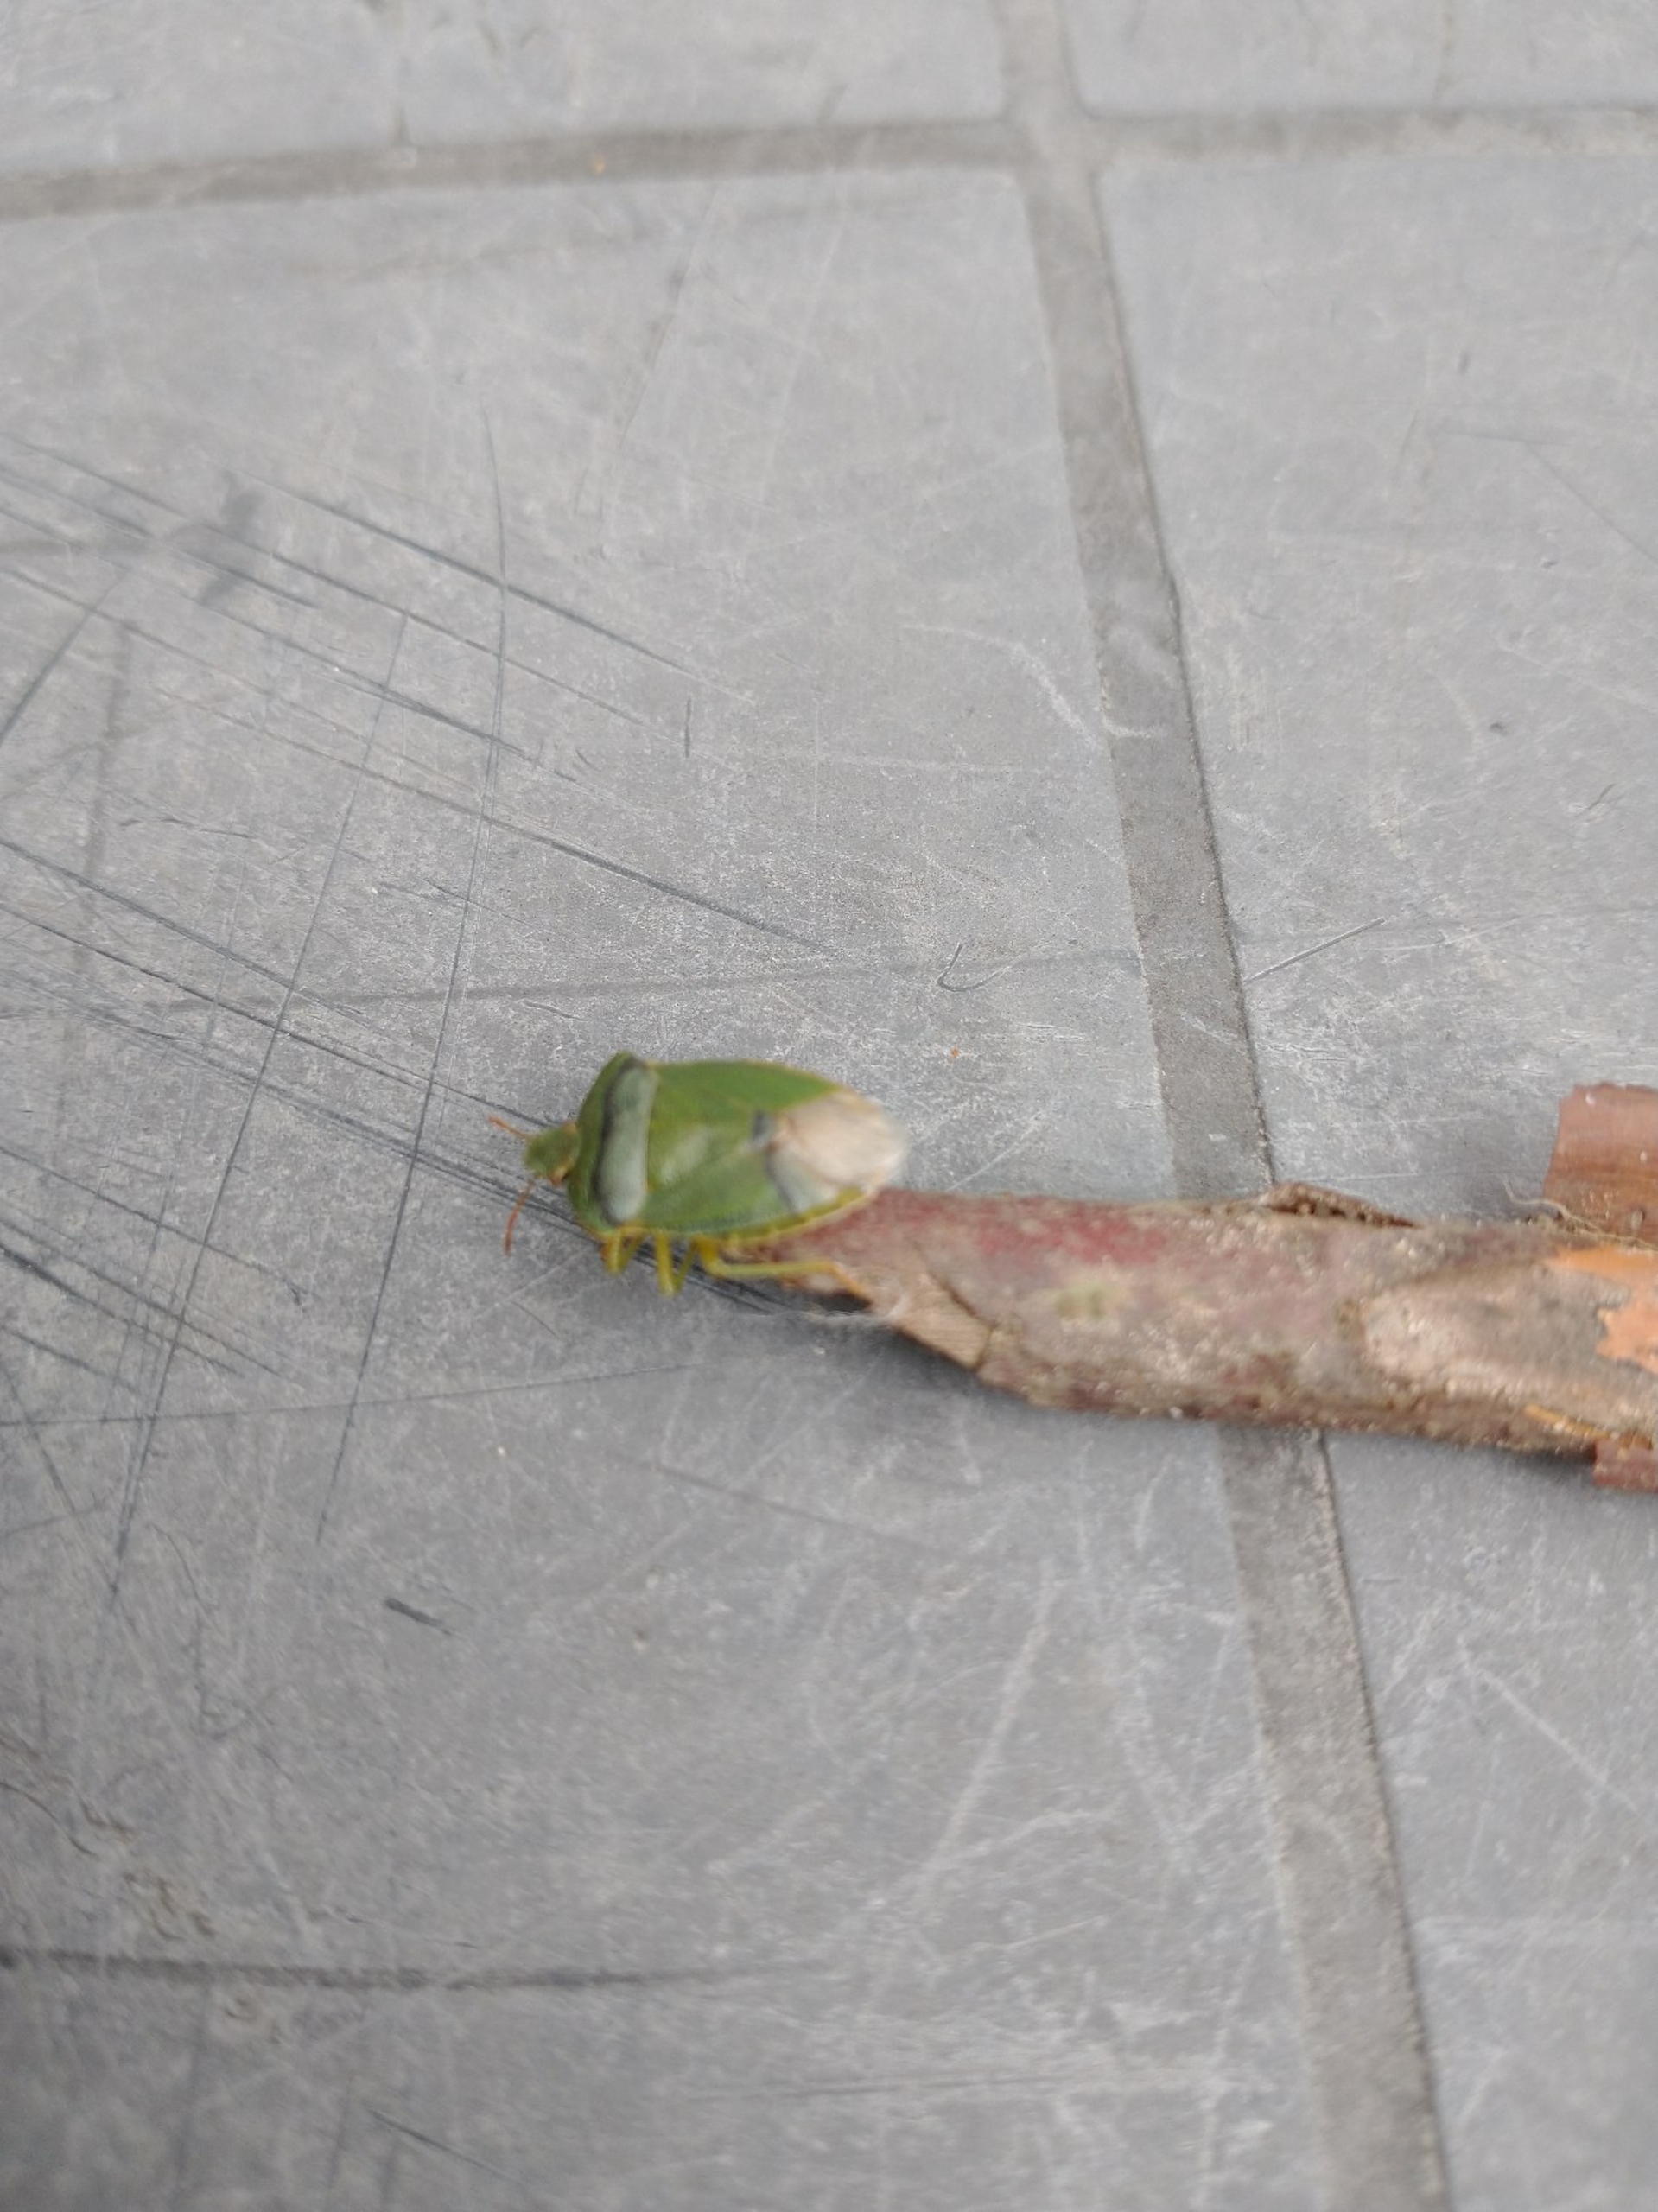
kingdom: Animalia
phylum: Arthropoda
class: Insecta
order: Hemiptera
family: Pentatomidae
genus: Palomena
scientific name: Palomena prasina
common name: Grøn bredtæge
